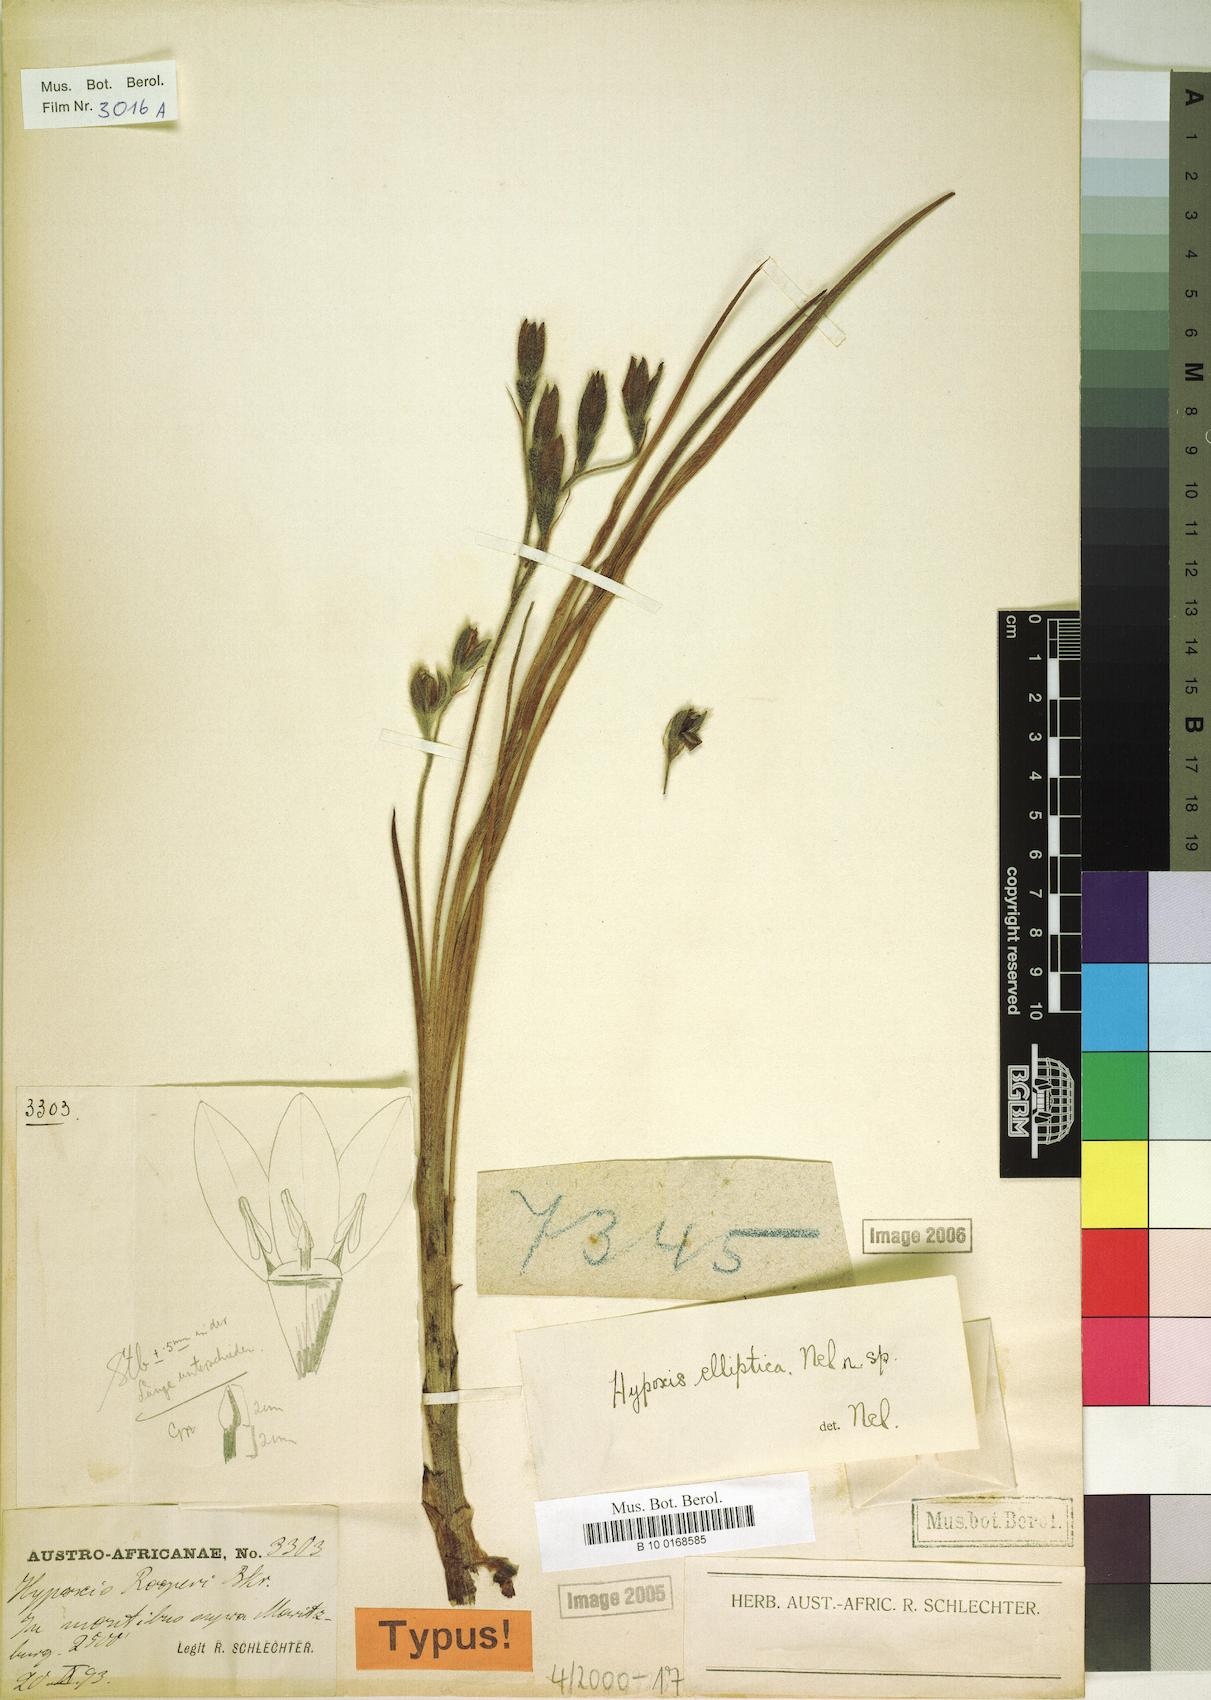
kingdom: Plantae
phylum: Tracheophyta
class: Liliopsida
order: Asparagales
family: Hypoxidaceae
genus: Hypoxis
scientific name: Hypoxis rigidula
